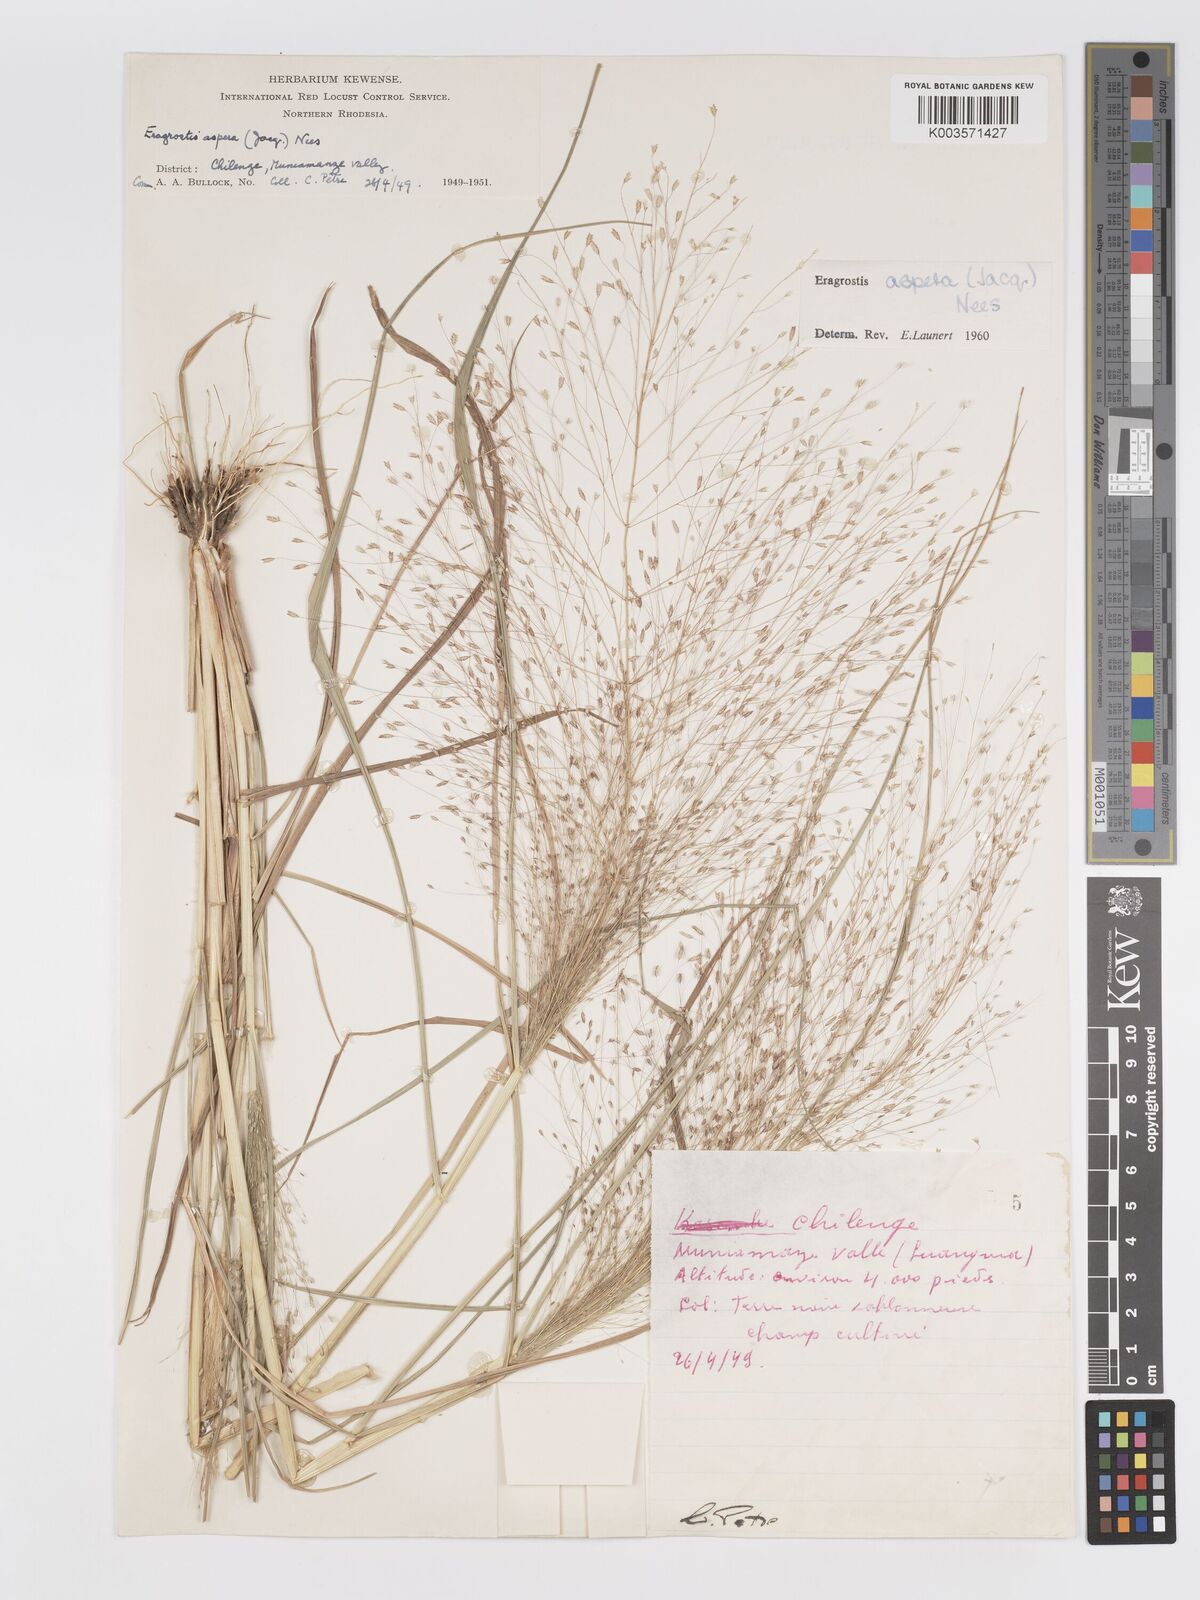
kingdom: Plantae
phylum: Tracheophyta
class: Liliopsida
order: Poales
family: Poaceae
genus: Eragrostis
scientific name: Eragrostis aspera
